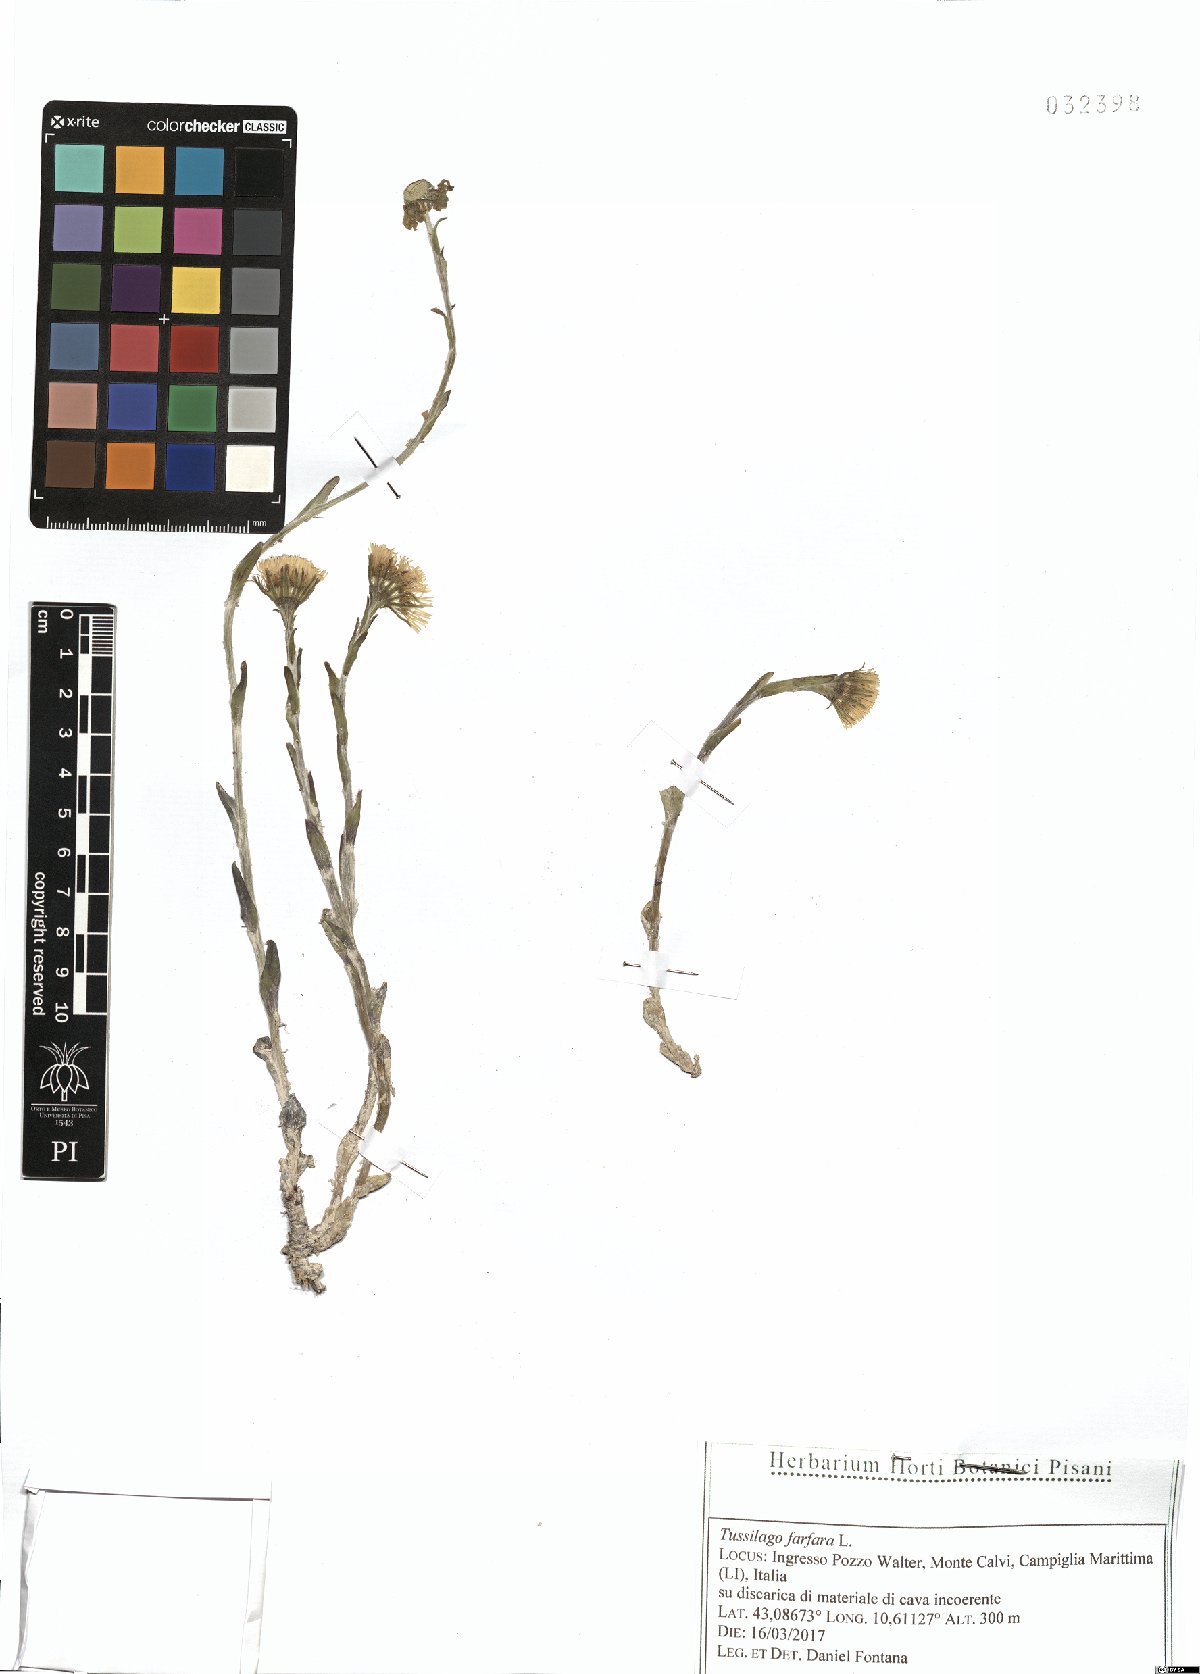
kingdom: Plantae
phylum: Tracheophyta
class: Magnoliopsida
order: Asterales
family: Asteraceae
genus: Tussilago
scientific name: Tussilago farfara
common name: Coltsfoot
